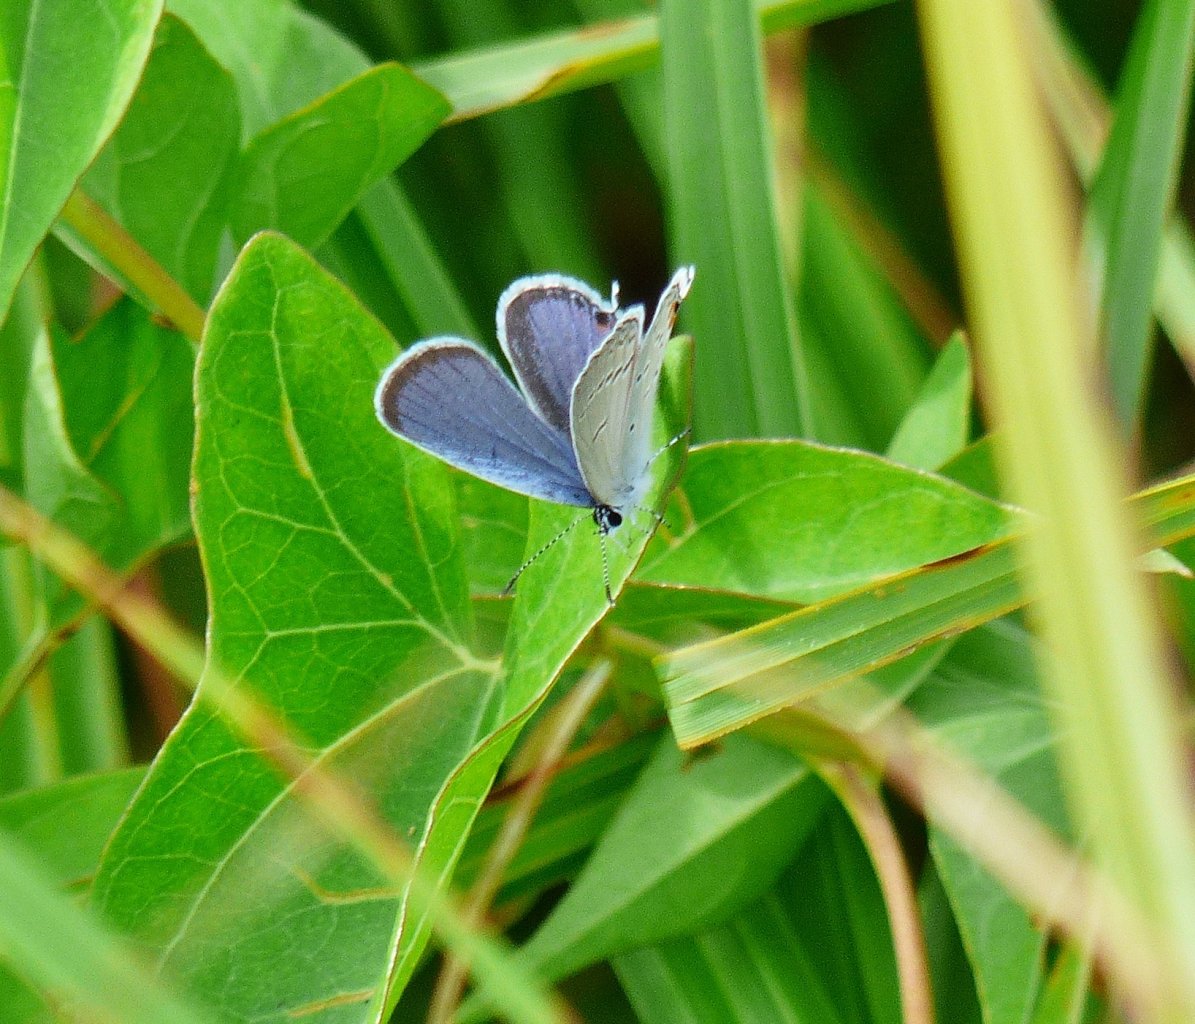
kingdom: Animalia
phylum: Arthropoda
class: Insecta
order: Lepidoptera
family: Lycaenidae
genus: Elkalyce
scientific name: Elkalyce comyntas
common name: Eastern Tailed-Blue
